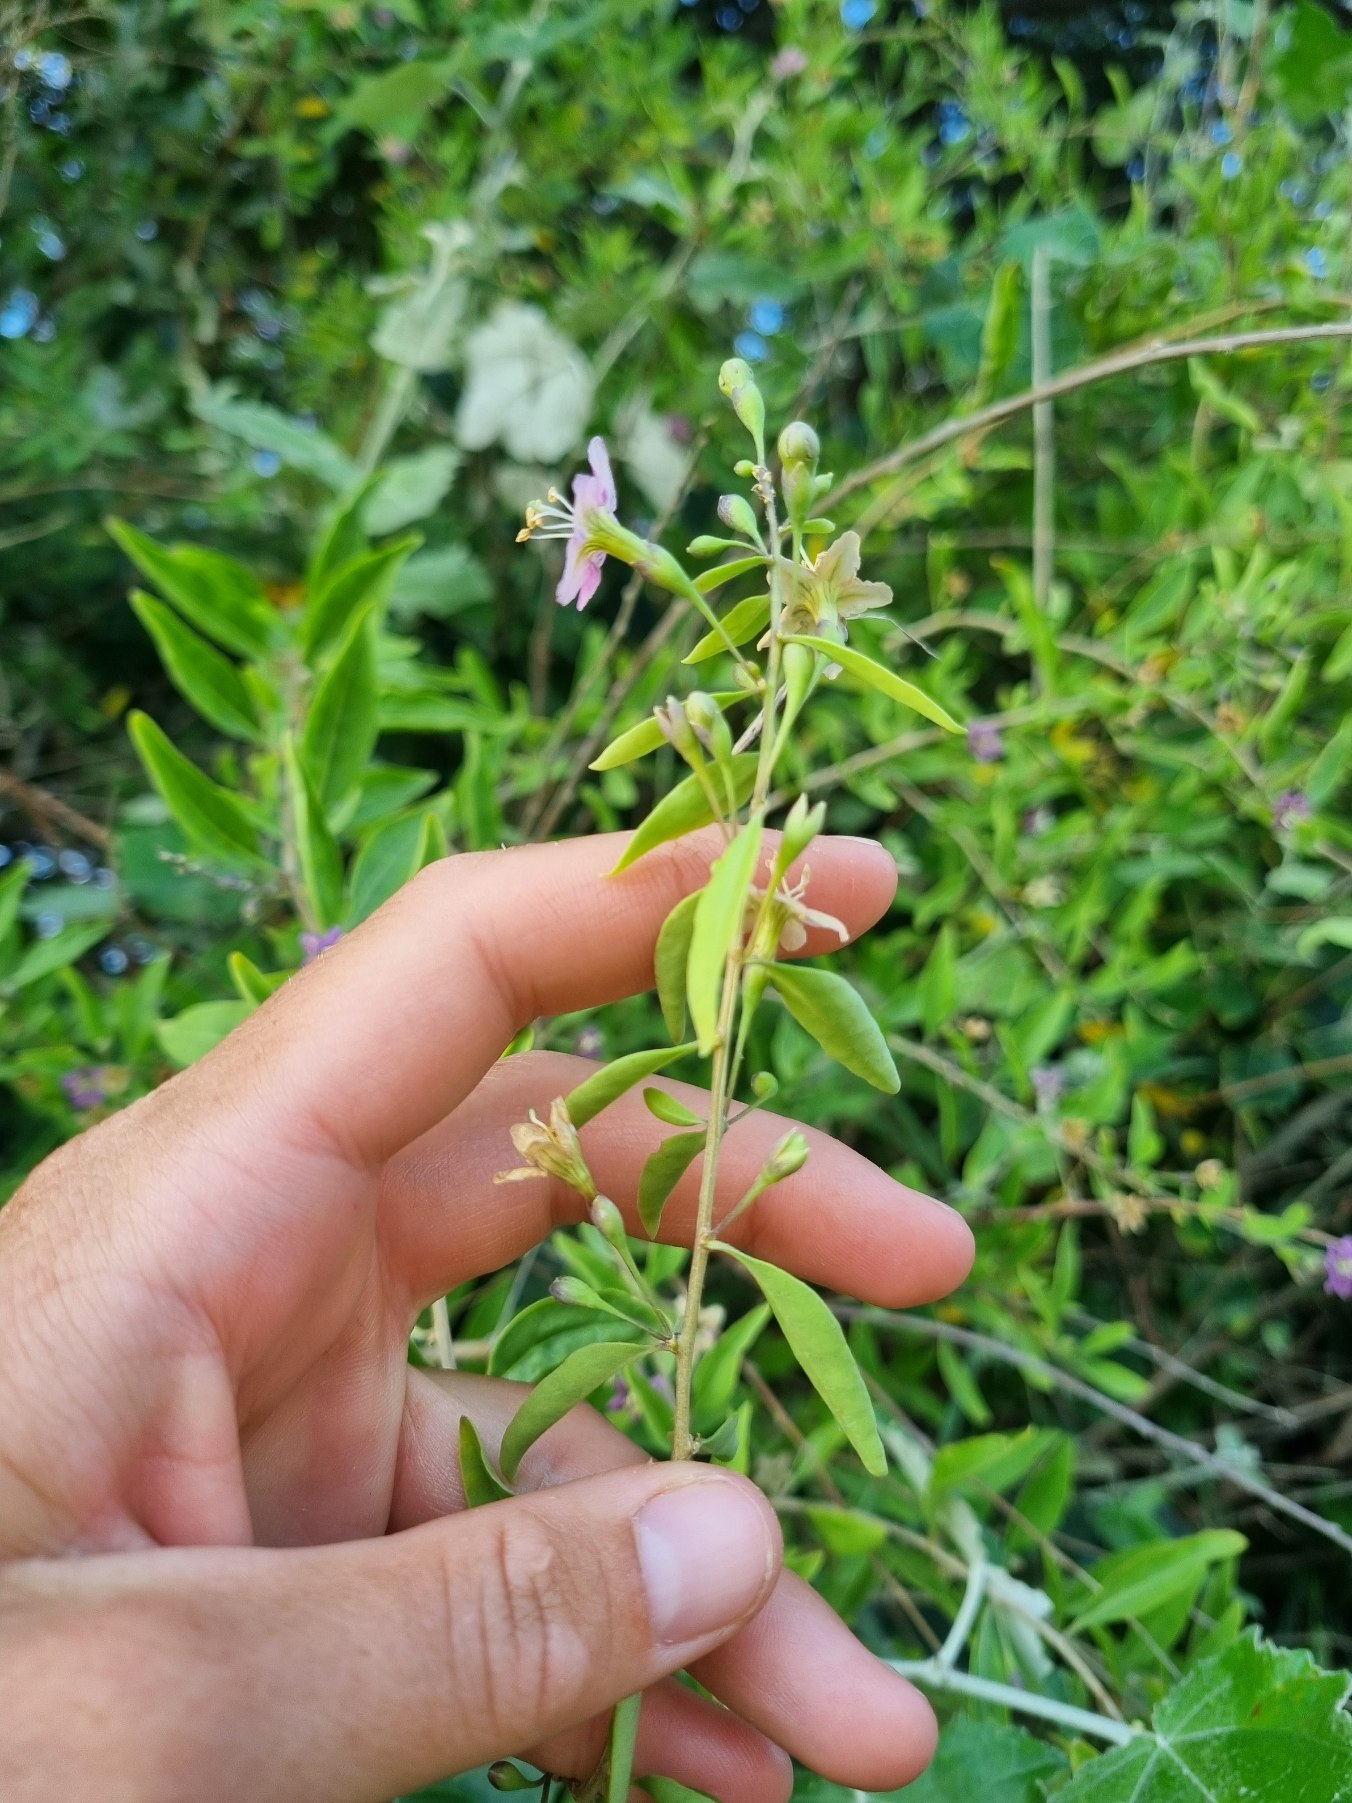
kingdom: Plantae
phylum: Tracheophyta
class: Magnoliopsida
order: Solanales
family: Solanaceae
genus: Lycium
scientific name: Lycium barbarum
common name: Bukketorn
